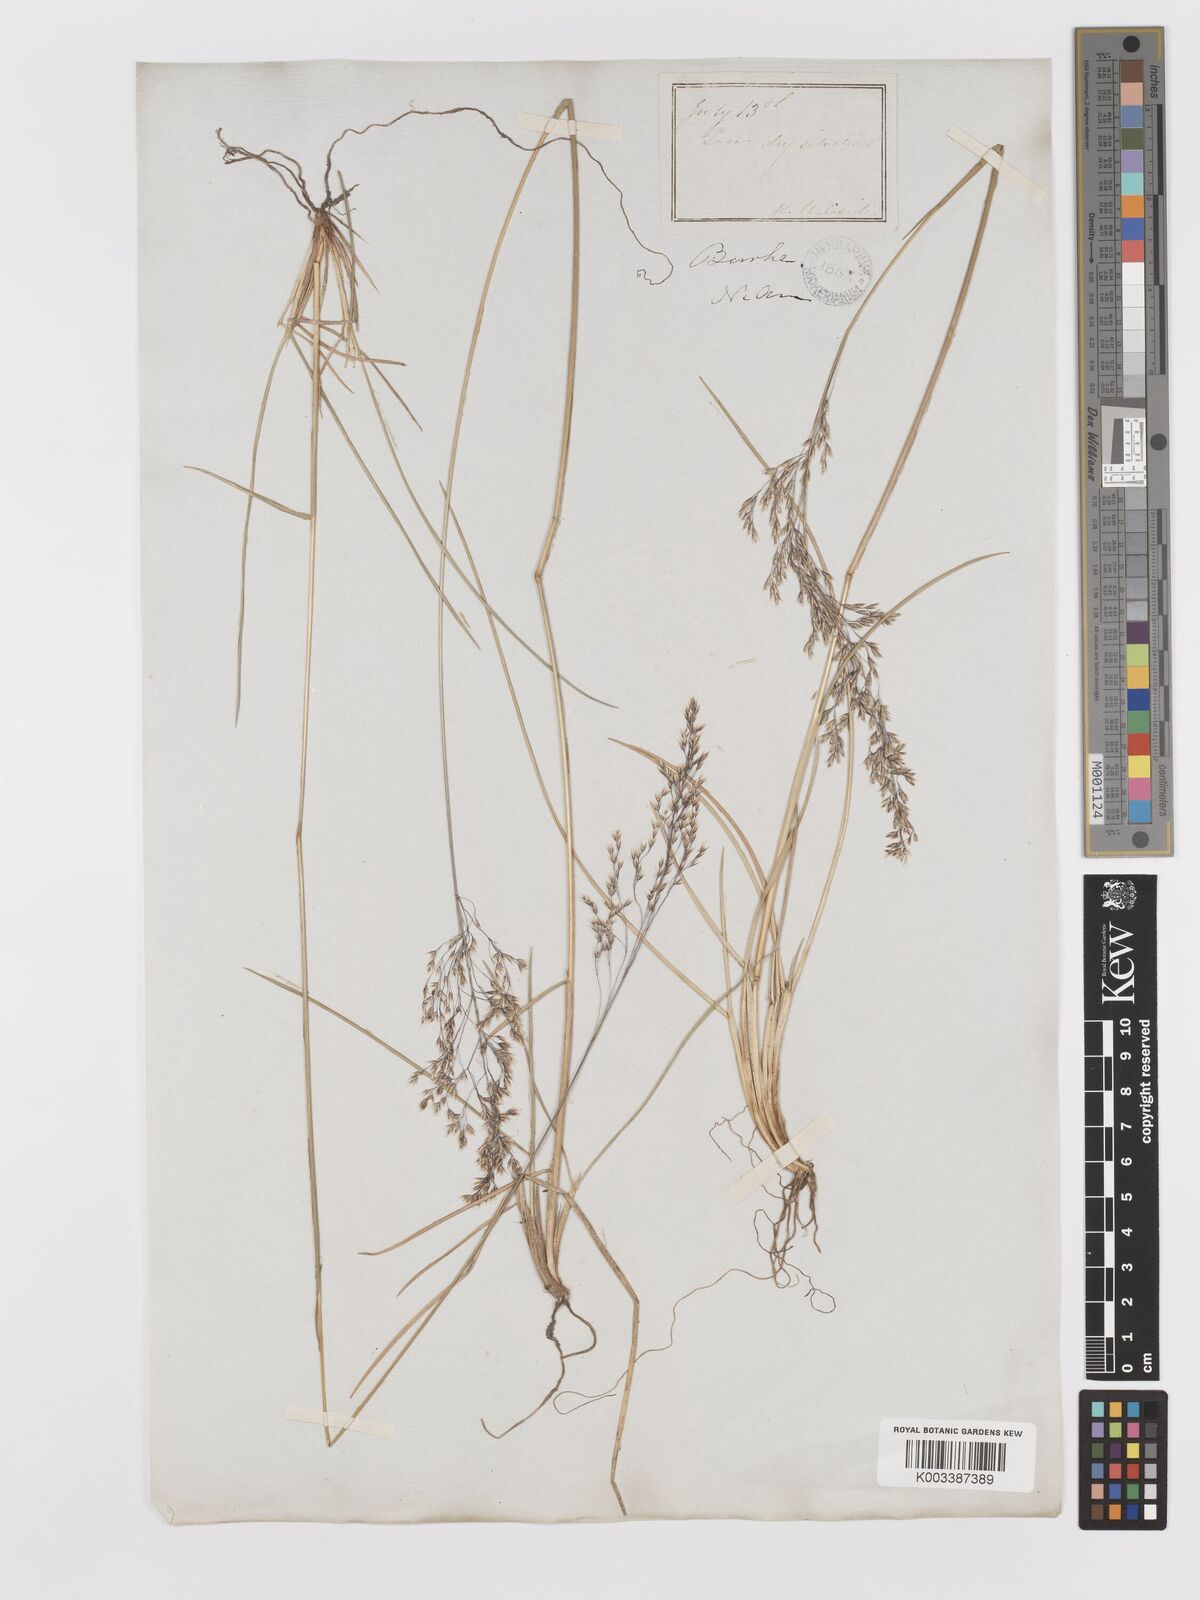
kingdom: Plantae
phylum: Tracheophyta
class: Liliopsida
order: Poales
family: Poaceae
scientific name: Poaceae
